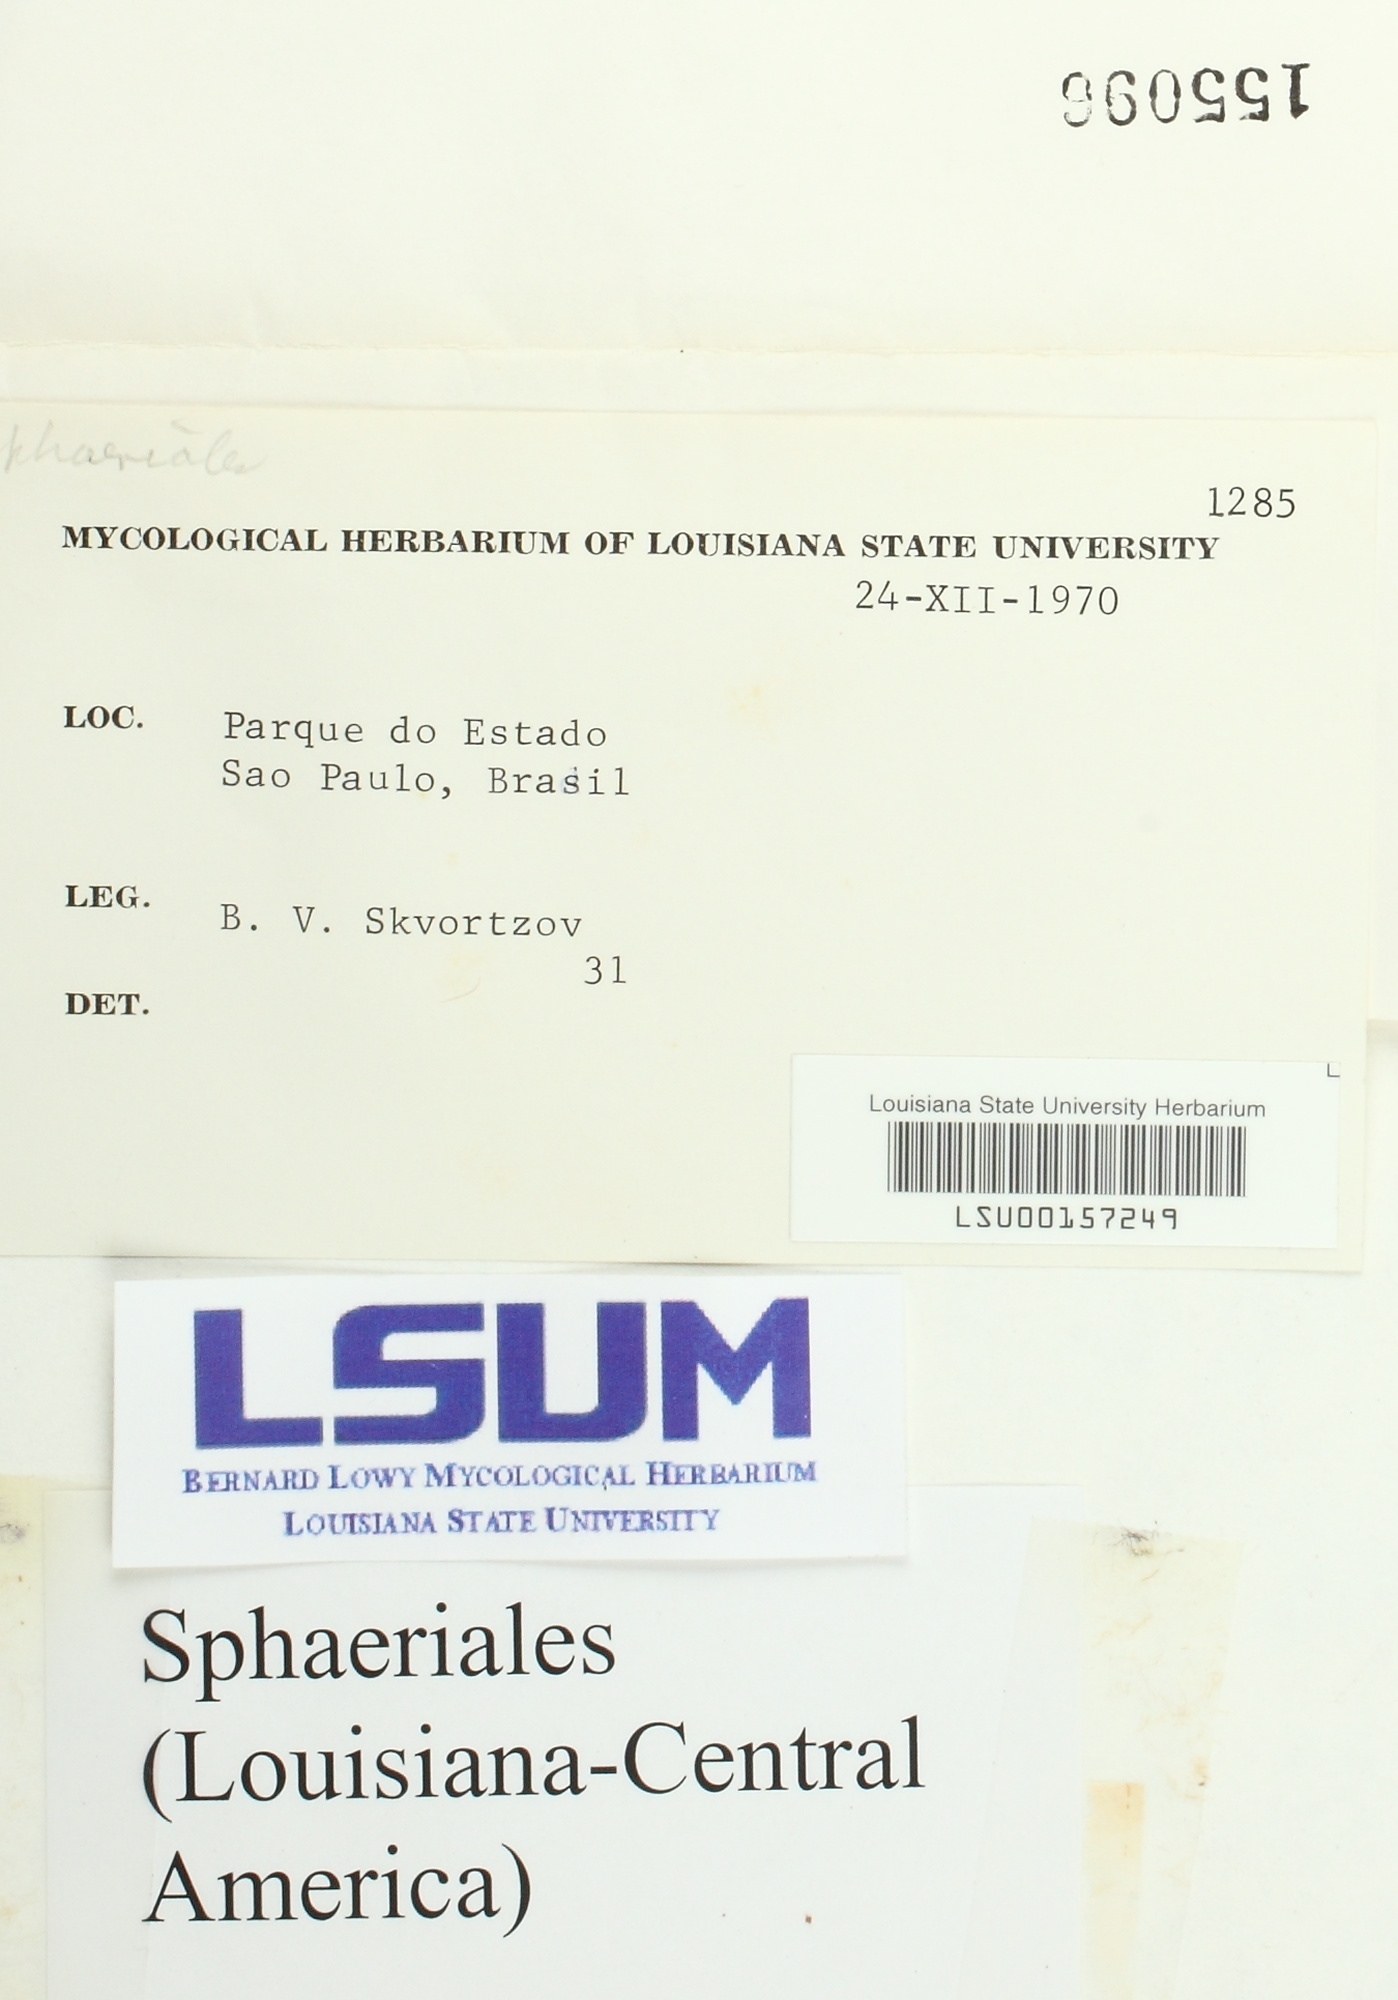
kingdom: Fungi
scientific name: Fungi
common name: Fungi
